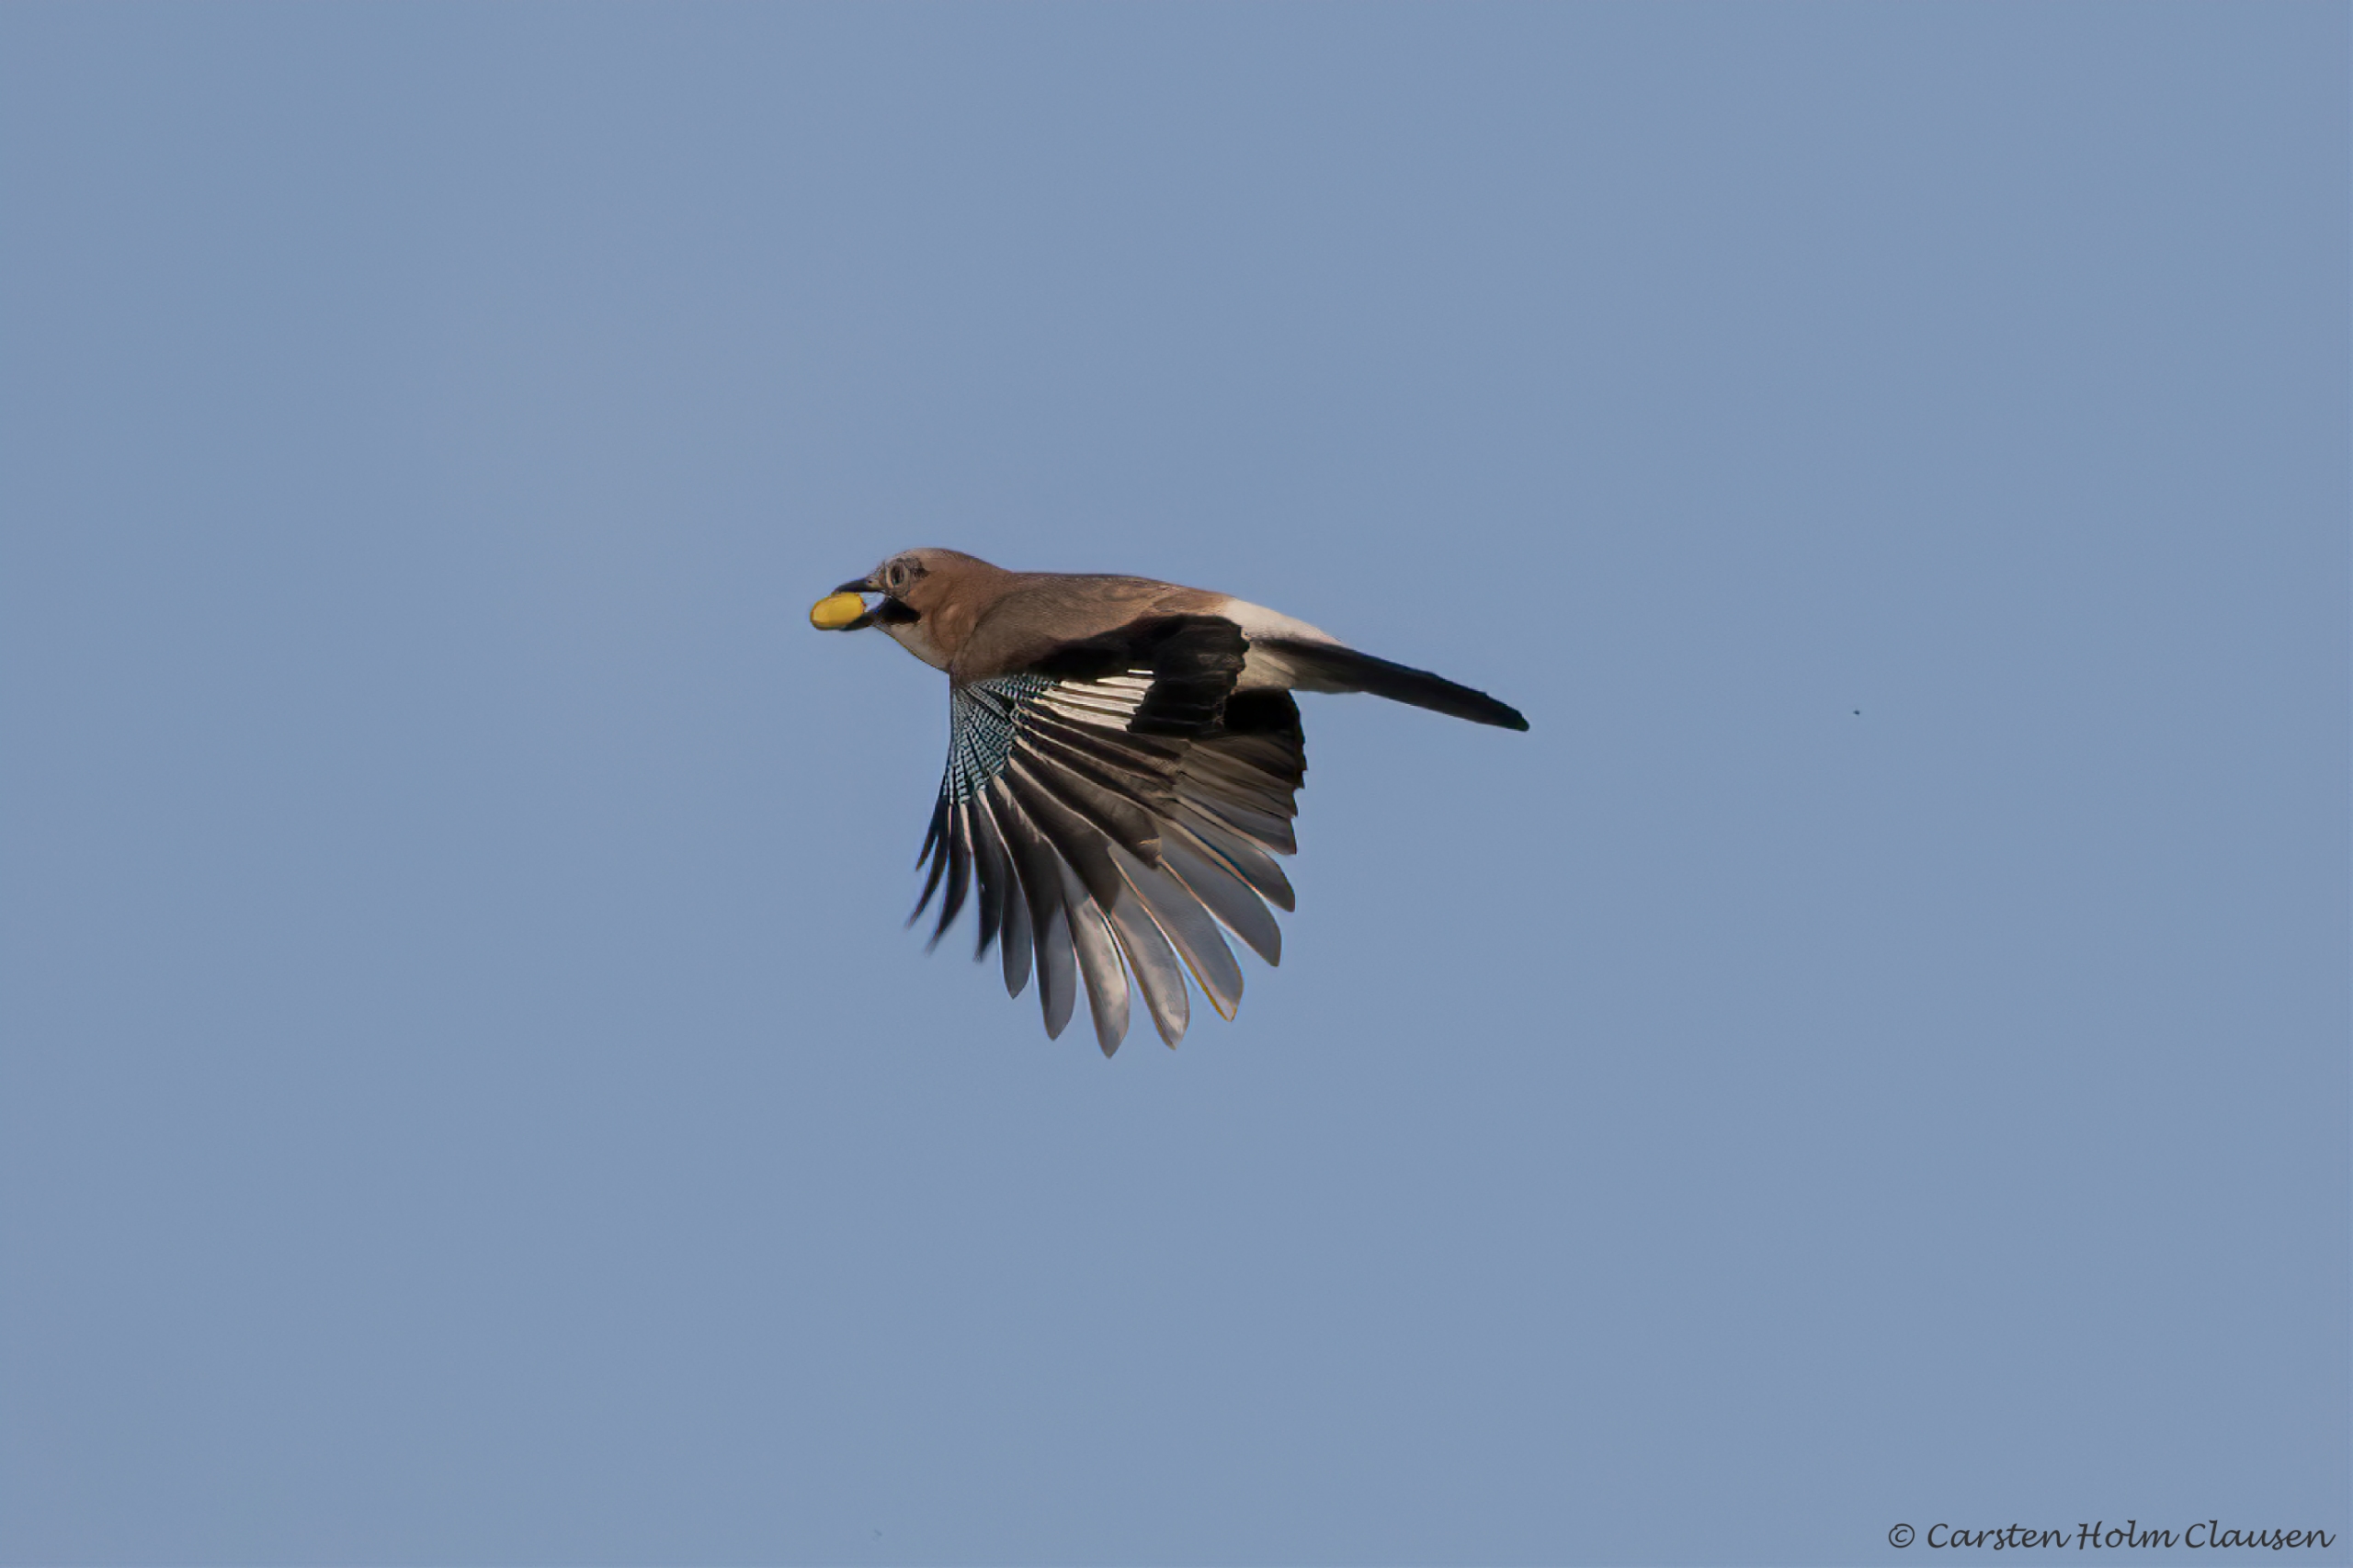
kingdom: Animalia
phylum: Chordata
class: Aves
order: Passeriformes
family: Corvidae
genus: Garrulus
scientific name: Garrulus glandarius
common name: Skovskade
